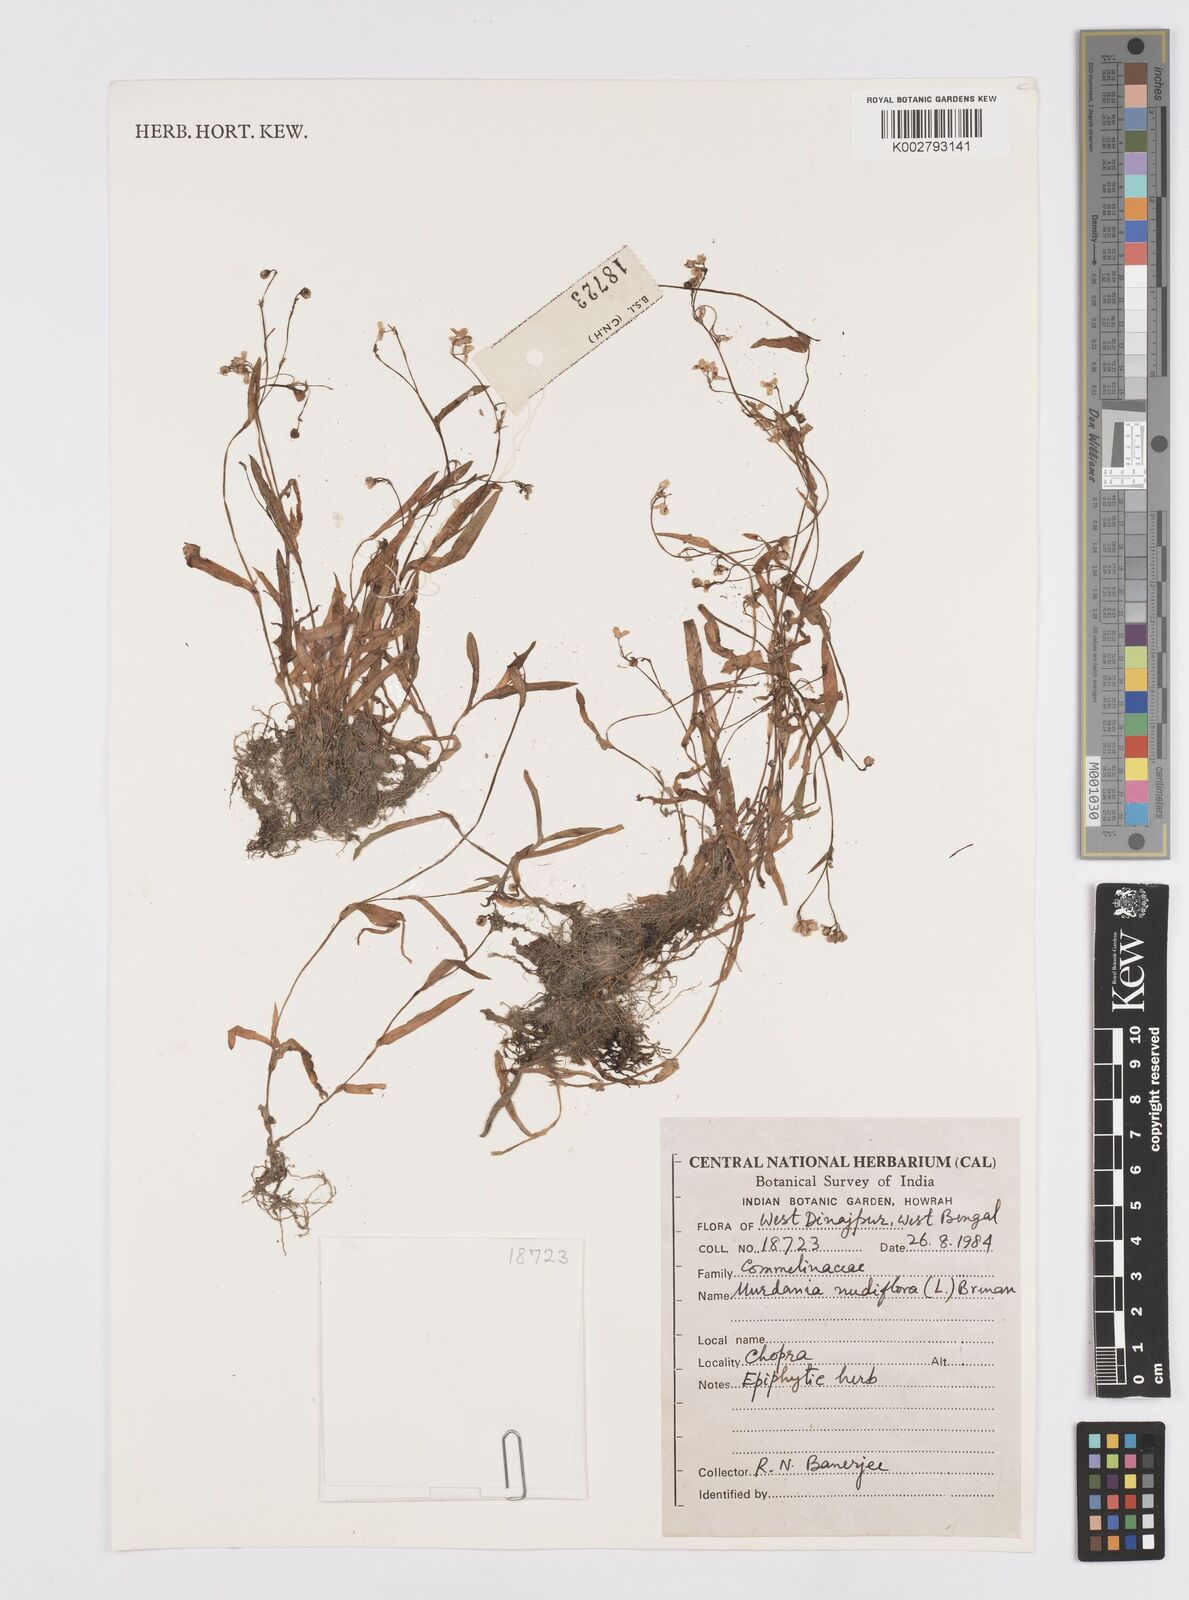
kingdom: Plantae
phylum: Tracheophyta
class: Liliopsida
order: Commelinales
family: Commelinaceae
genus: Murdannia
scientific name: Murdannia nudiflora
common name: Nakedstem dewflower
